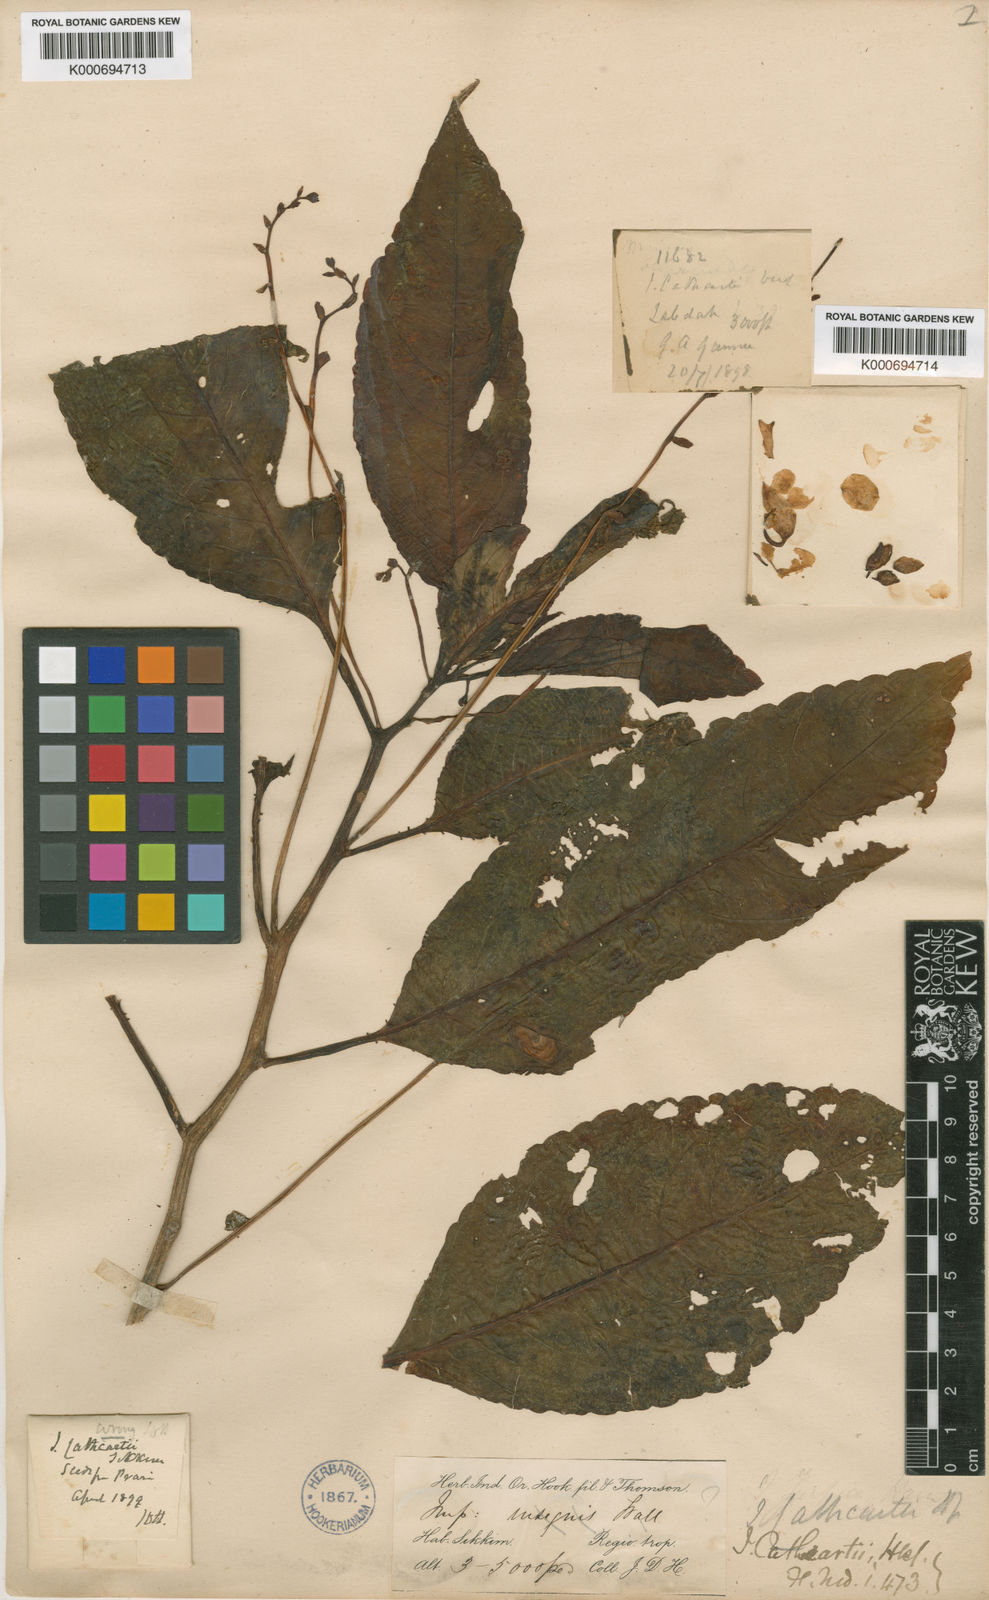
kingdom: Plantae
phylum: Tracheophyta
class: Magnoliopsida
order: Ericales
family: Balsaminaceae
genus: Impatiens
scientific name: Impatiens cathcartii
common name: J. f. cathcart's balsam
